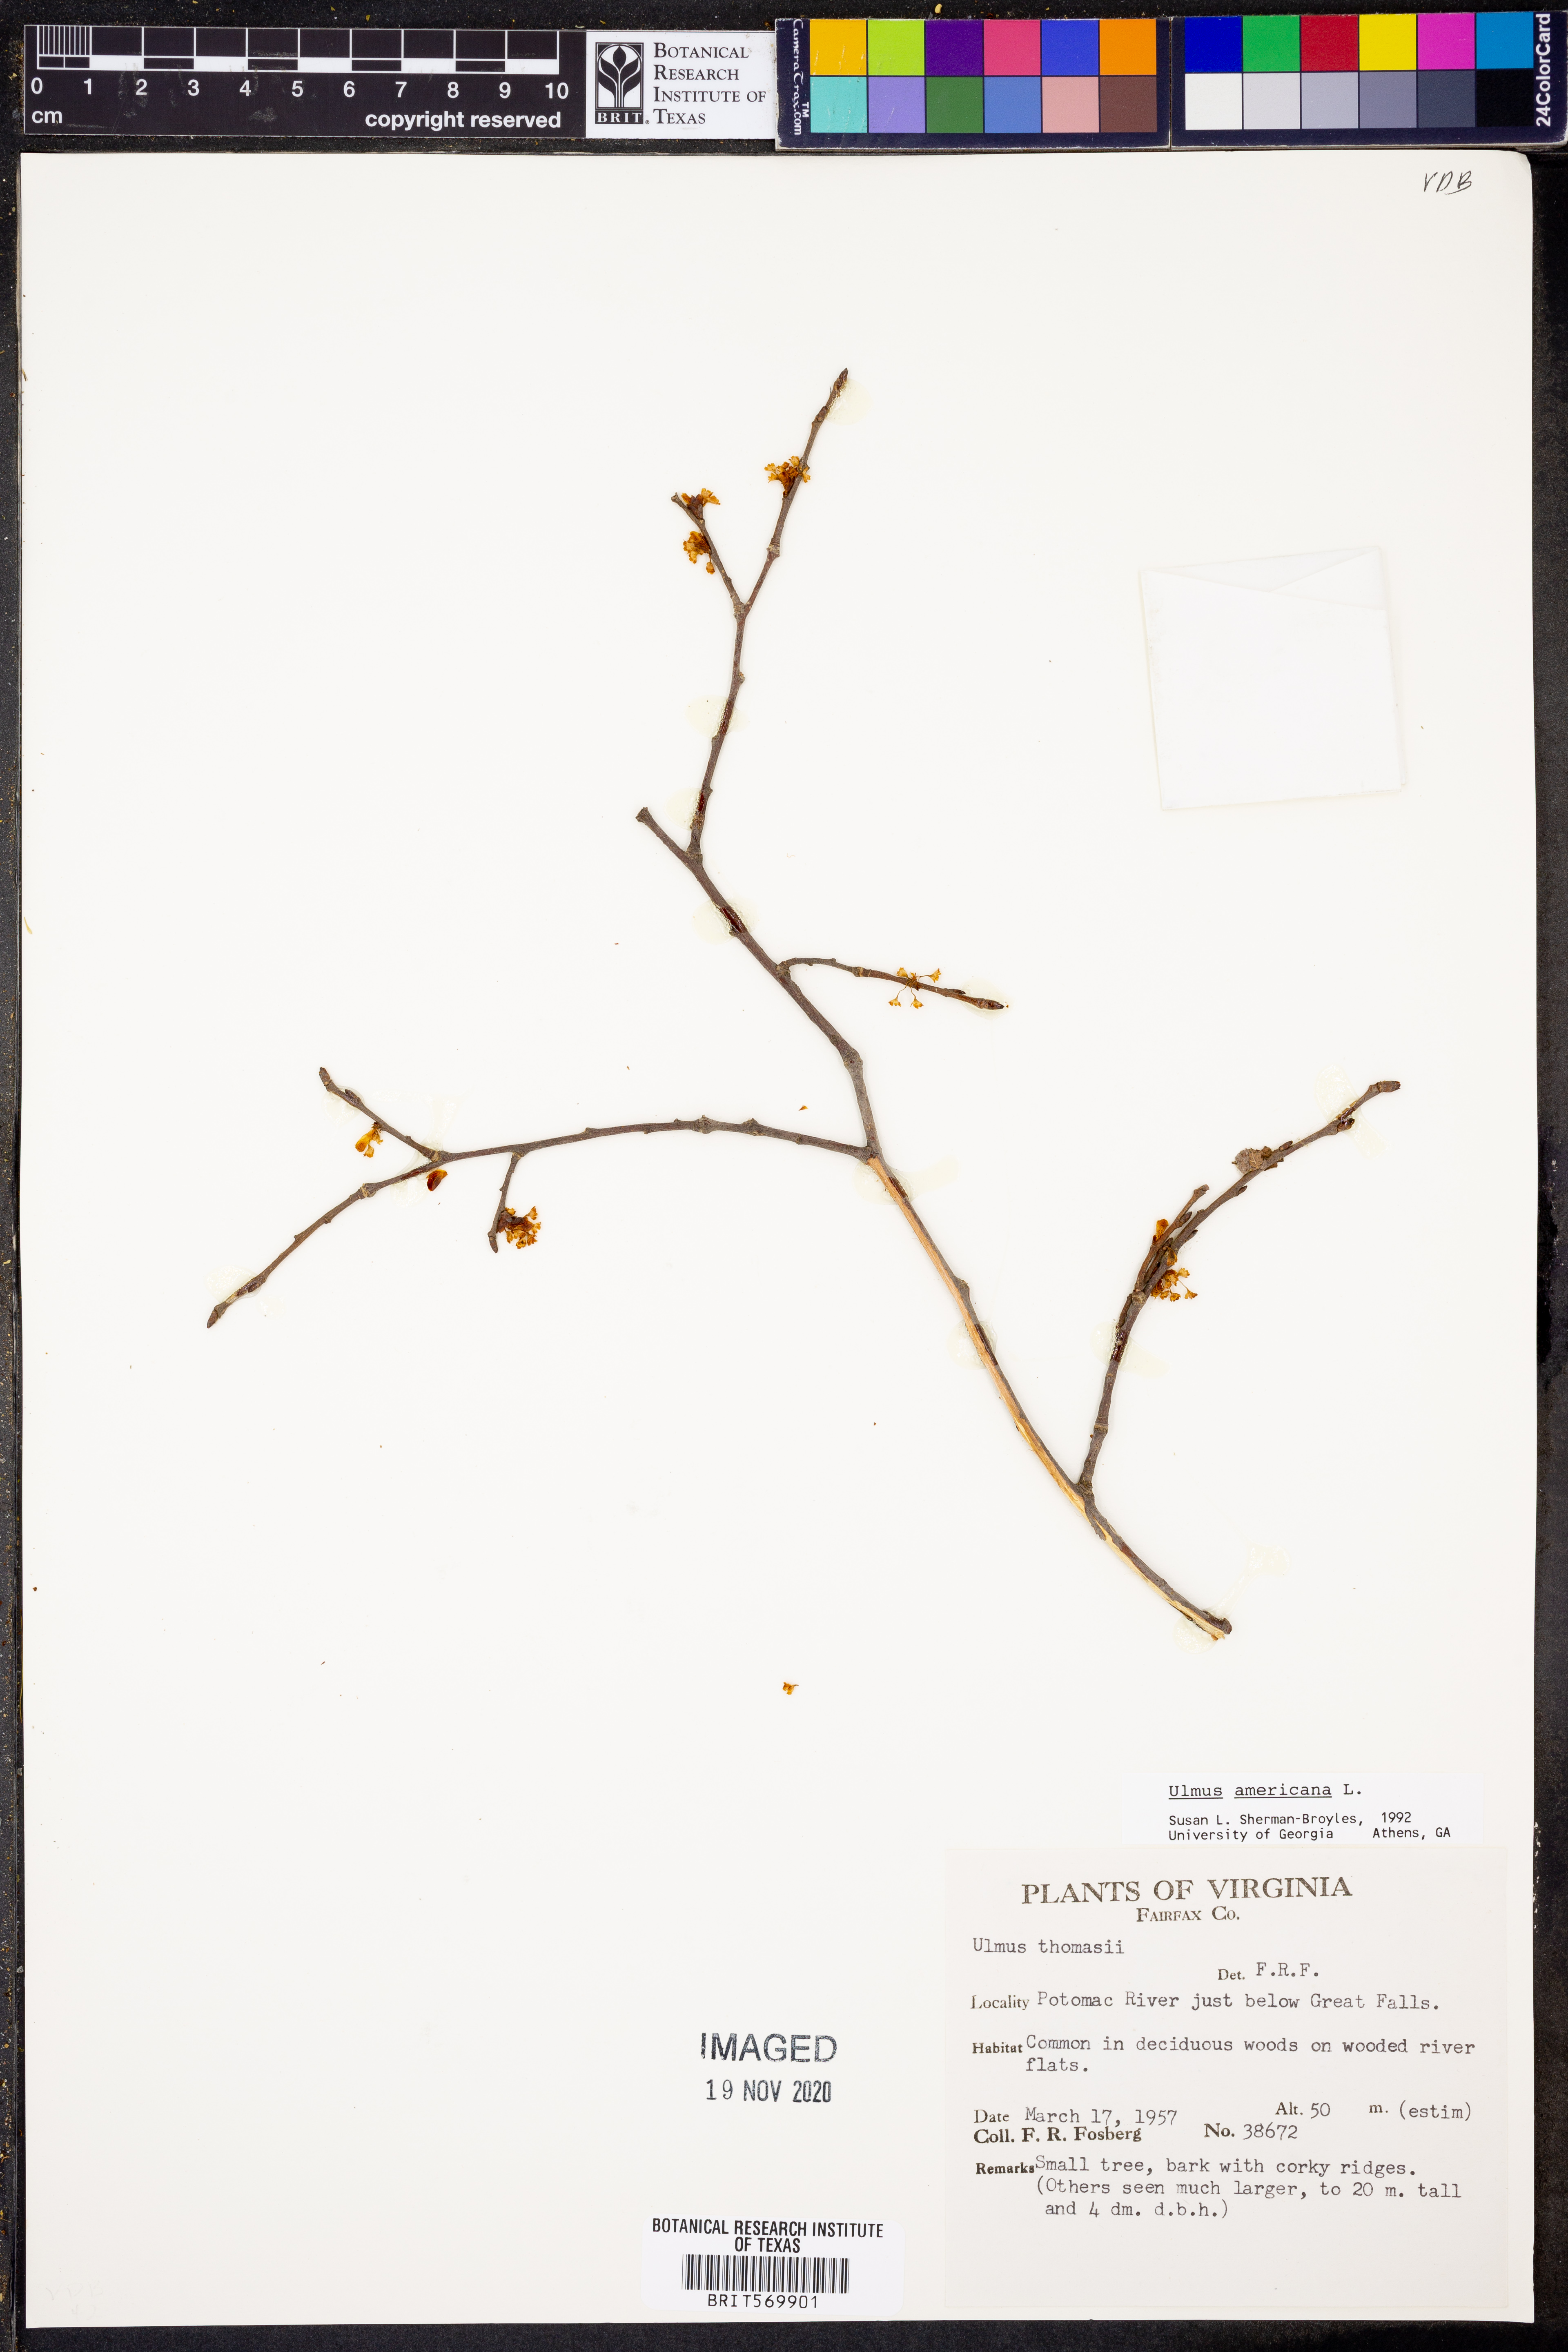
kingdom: Plantae
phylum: Tracheophyta
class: Magnoliopsida
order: Rosales
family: Ulmaceae
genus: Ulmus
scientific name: Ulmus americana
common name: American elm
